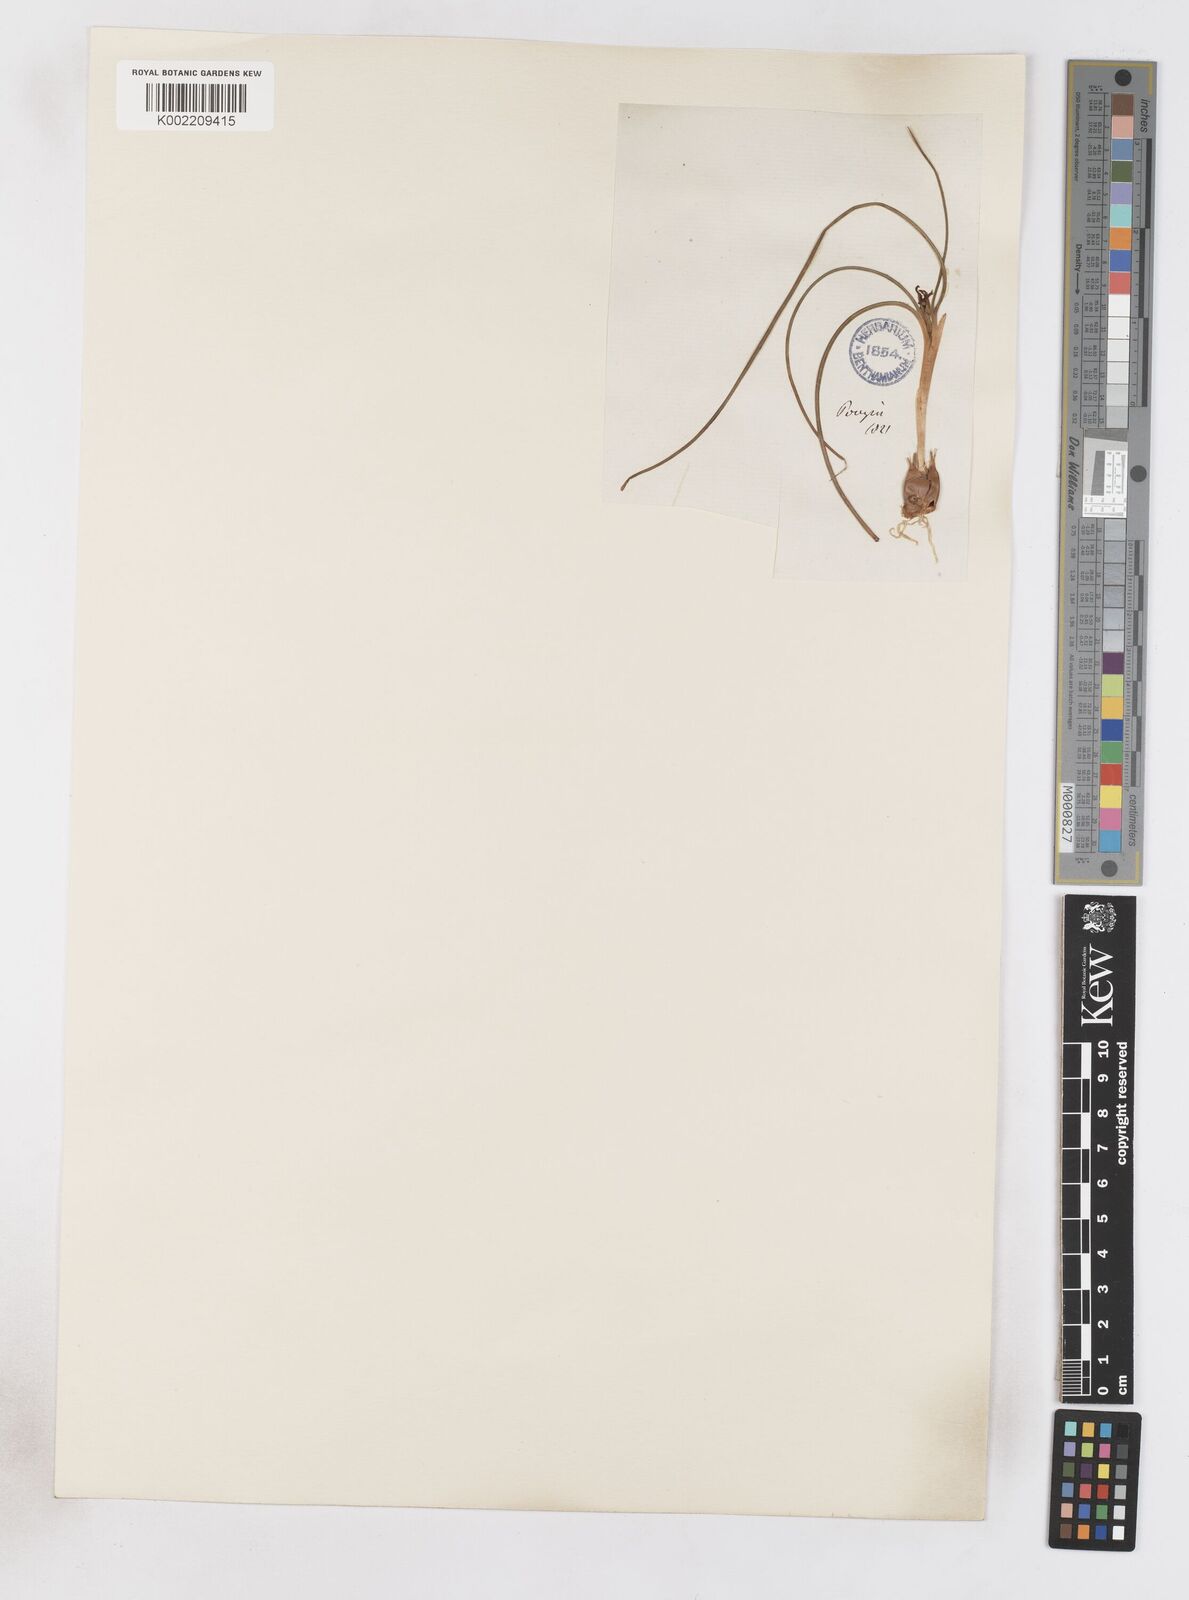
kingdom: Plantae
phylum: Tracheophyta
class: Liliopsida
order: Asparagales
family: Iridaceae
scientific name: Iridaceae
